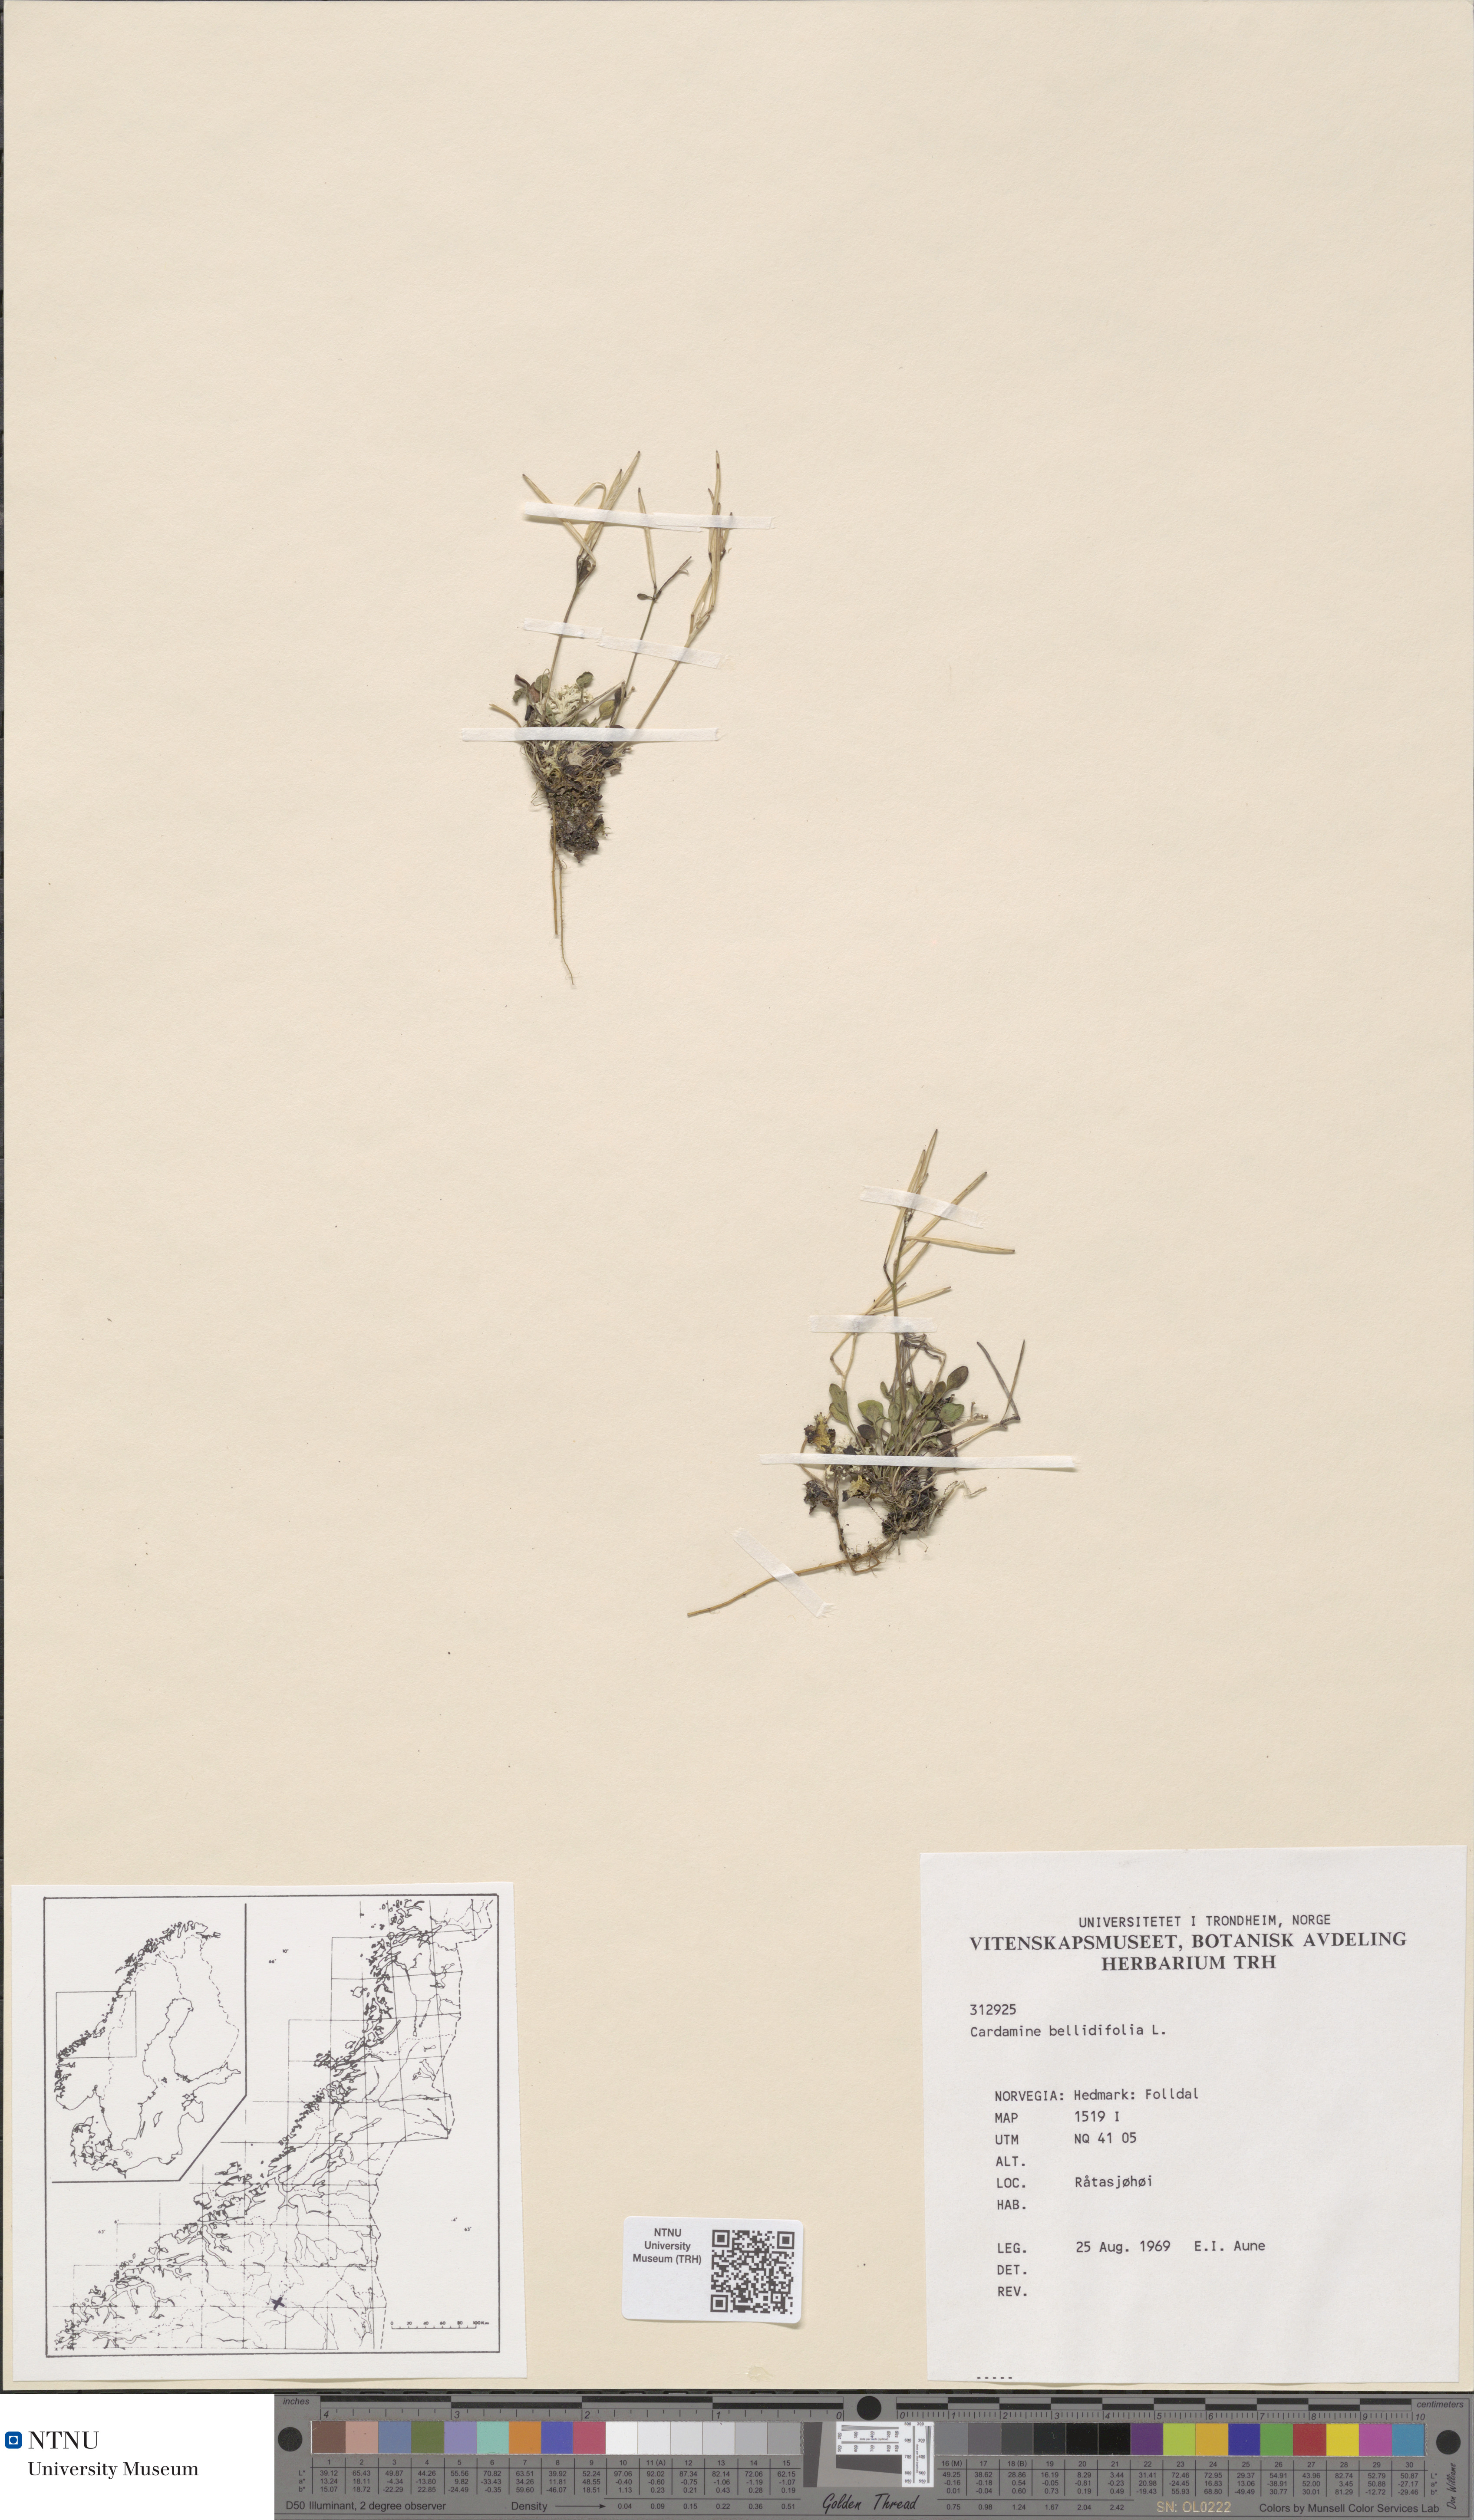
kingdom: Plantae
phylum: Tracheophyta
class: Magnoliopsida
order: Brassicales
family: Brassicaceae
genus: Cardamine
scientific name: Cardamine bellidifolia
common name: Alpine bittercress
